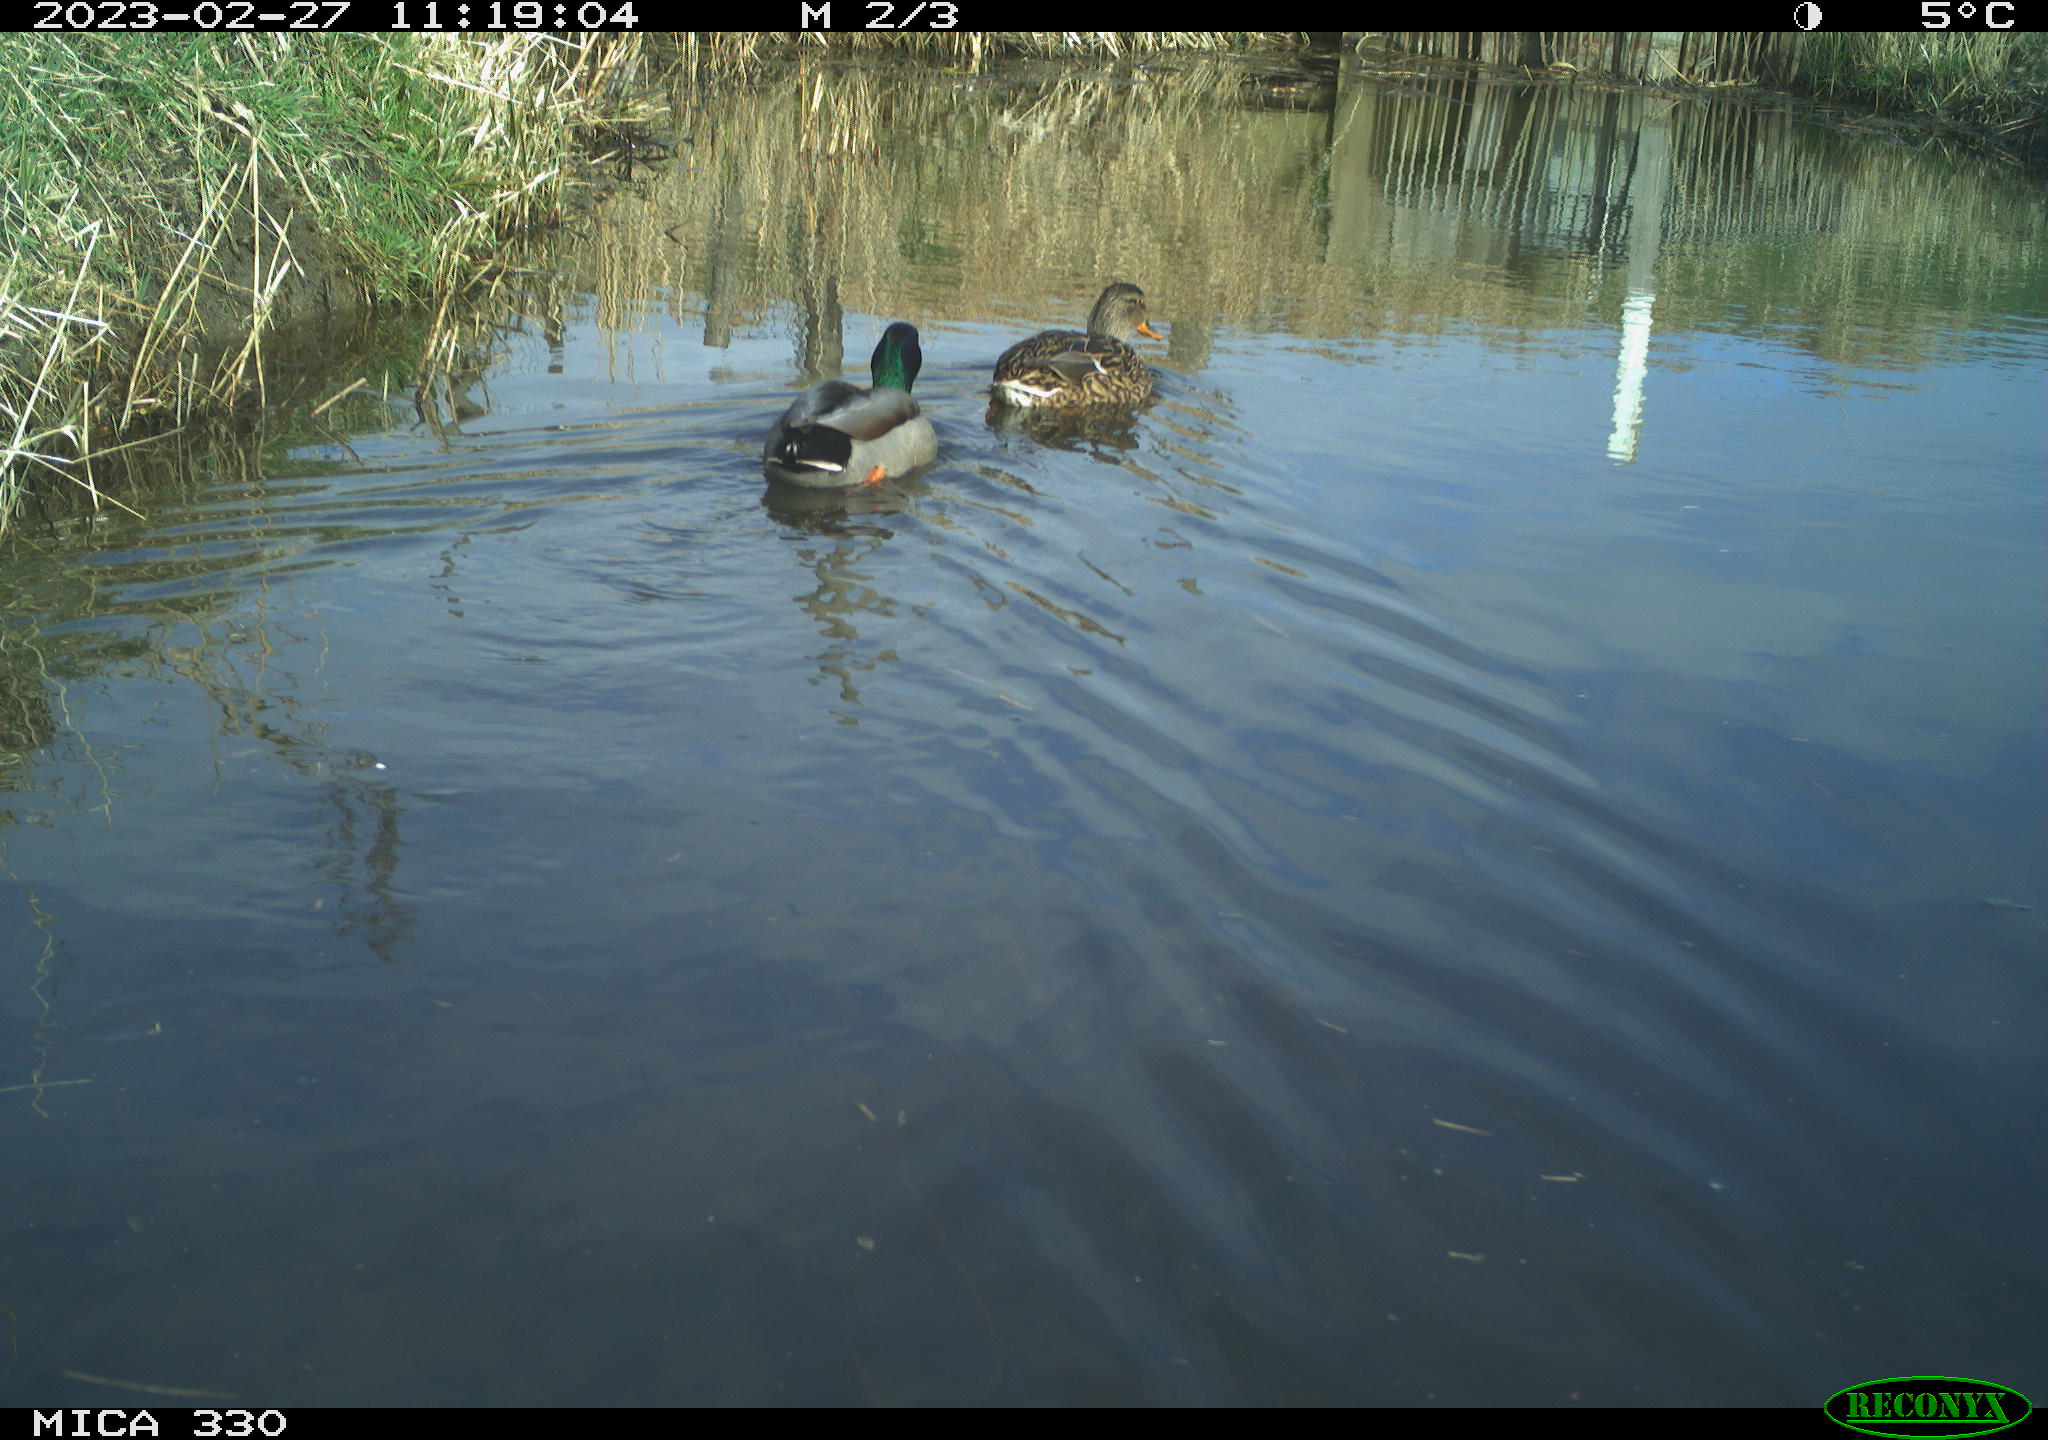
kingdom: Animalia
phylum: Chordata
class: Aves
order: Anseriformes
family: Anatidae
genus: Anas
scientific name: Anas
